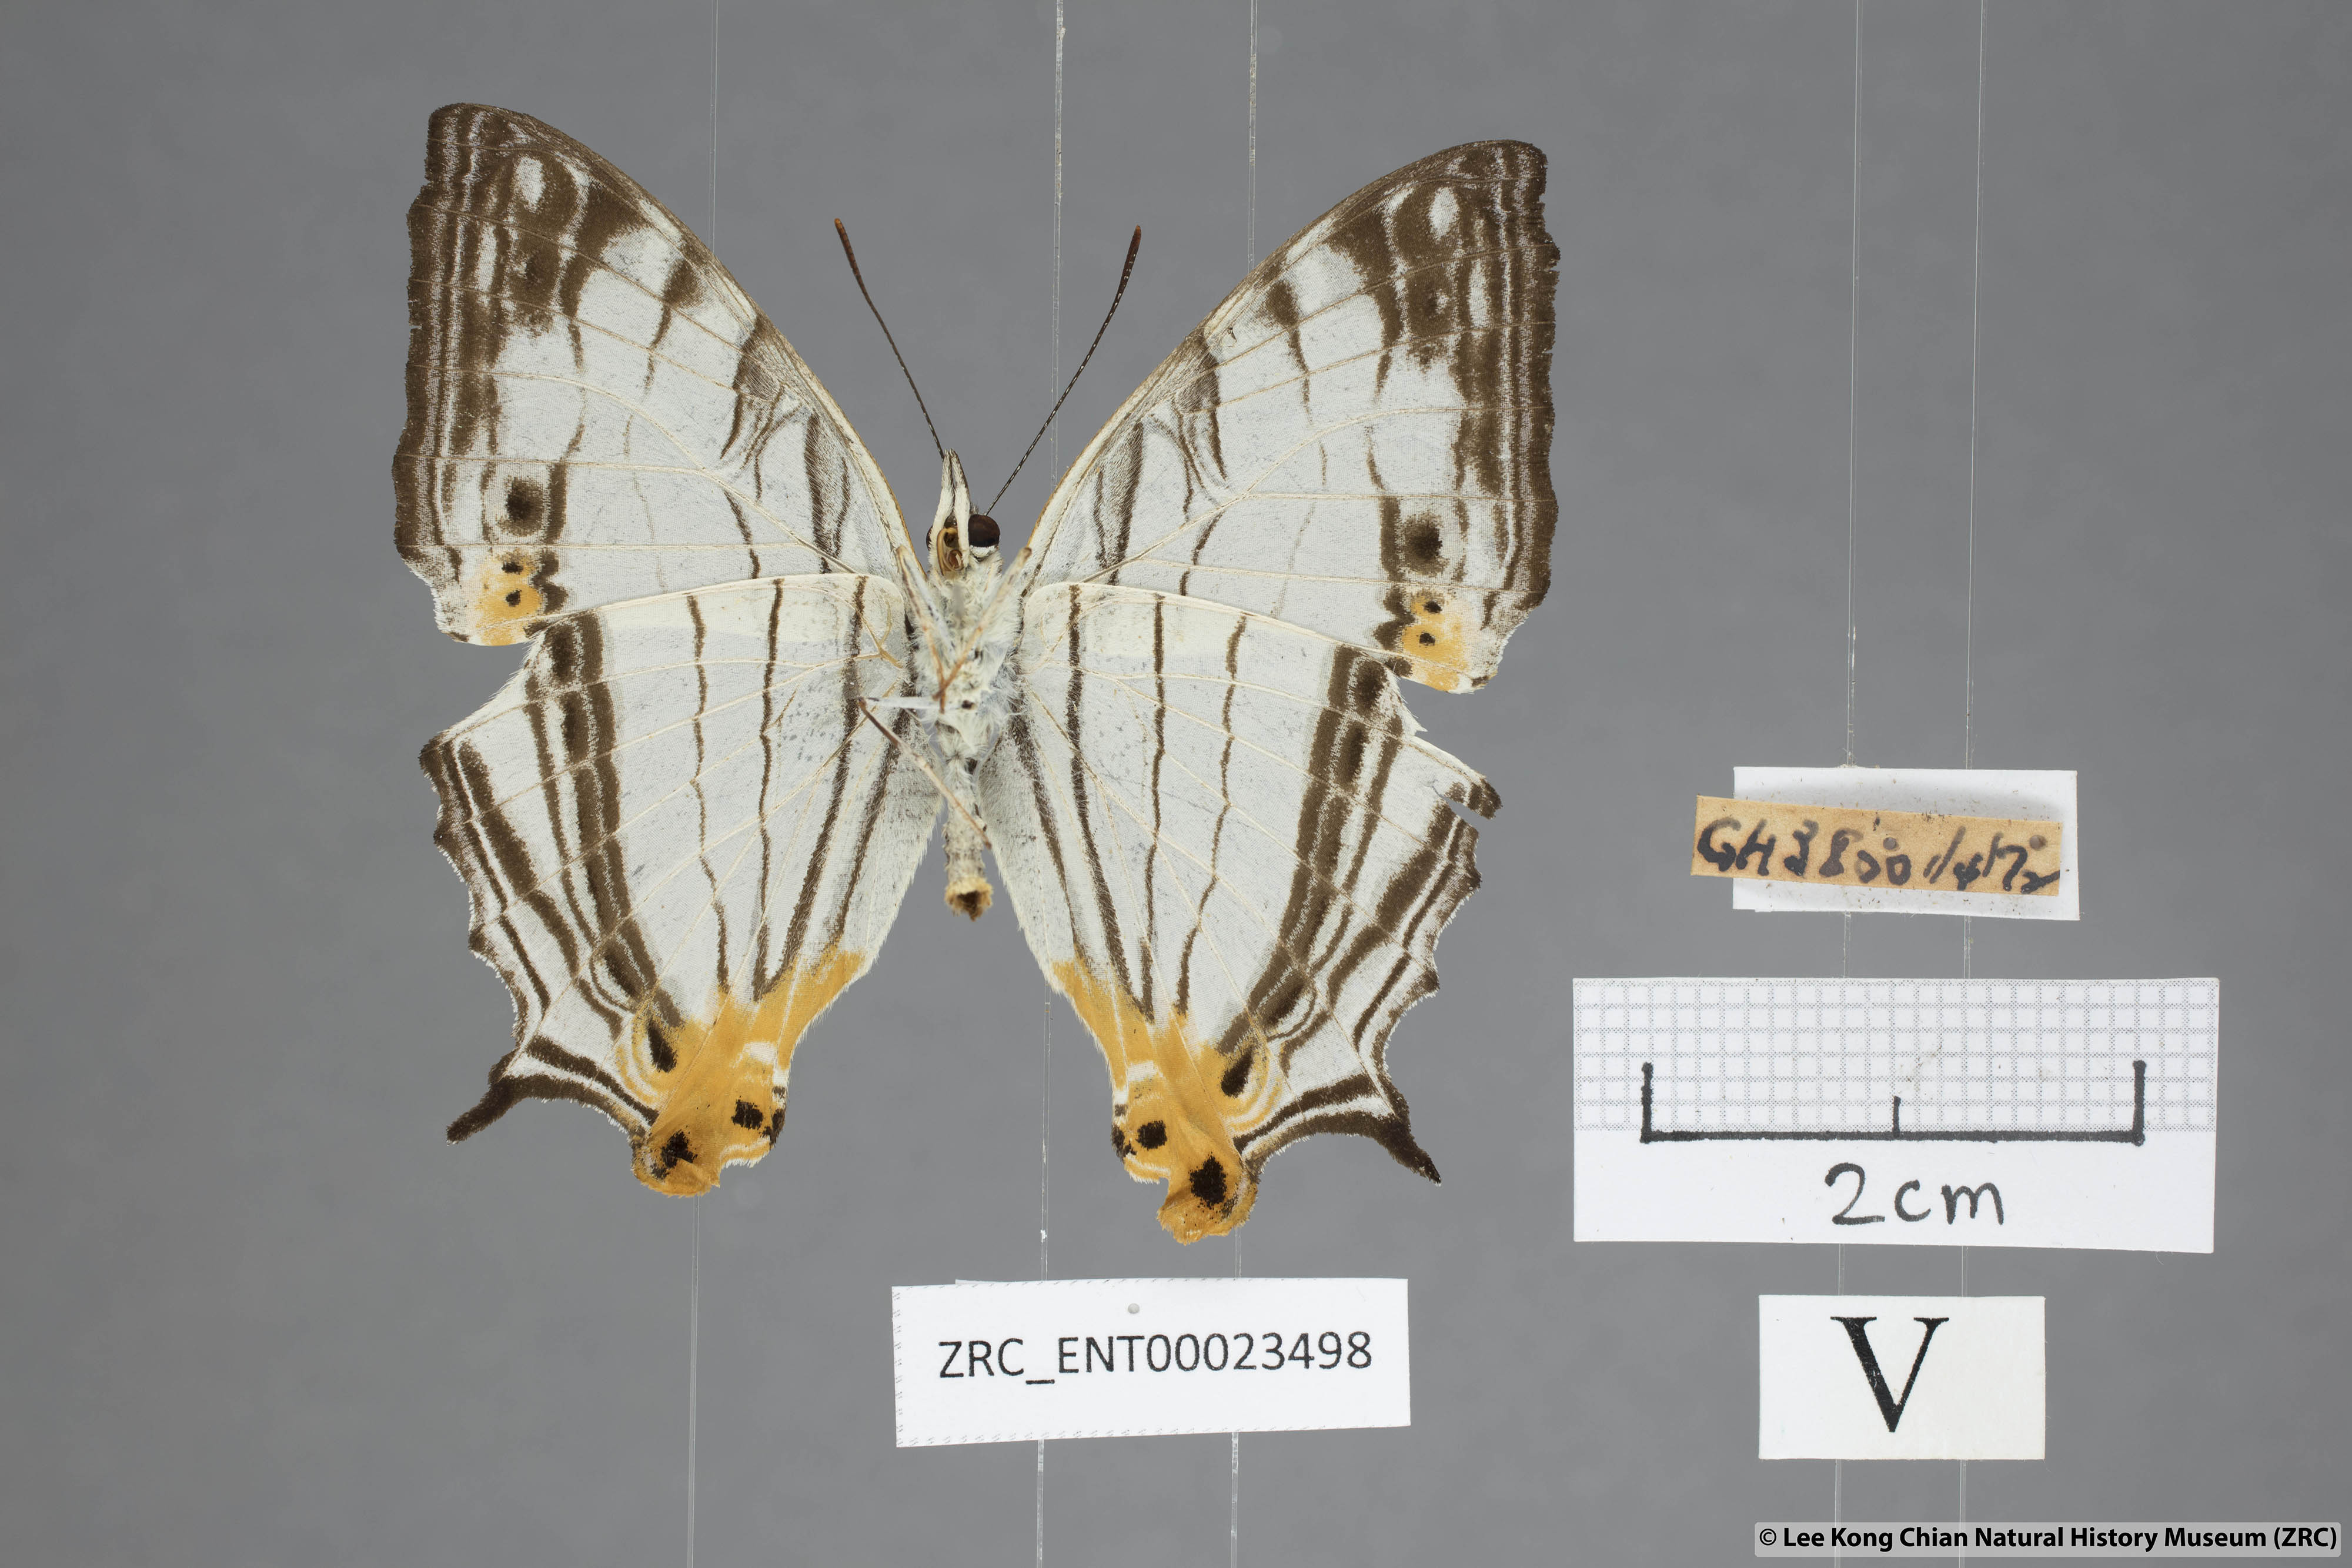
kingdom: Animalia
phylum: Arthropoda
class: Insecta
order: Lepidoptera
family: Nymphalidae
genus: Cyrestis
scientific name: Cyrestis maenalis
